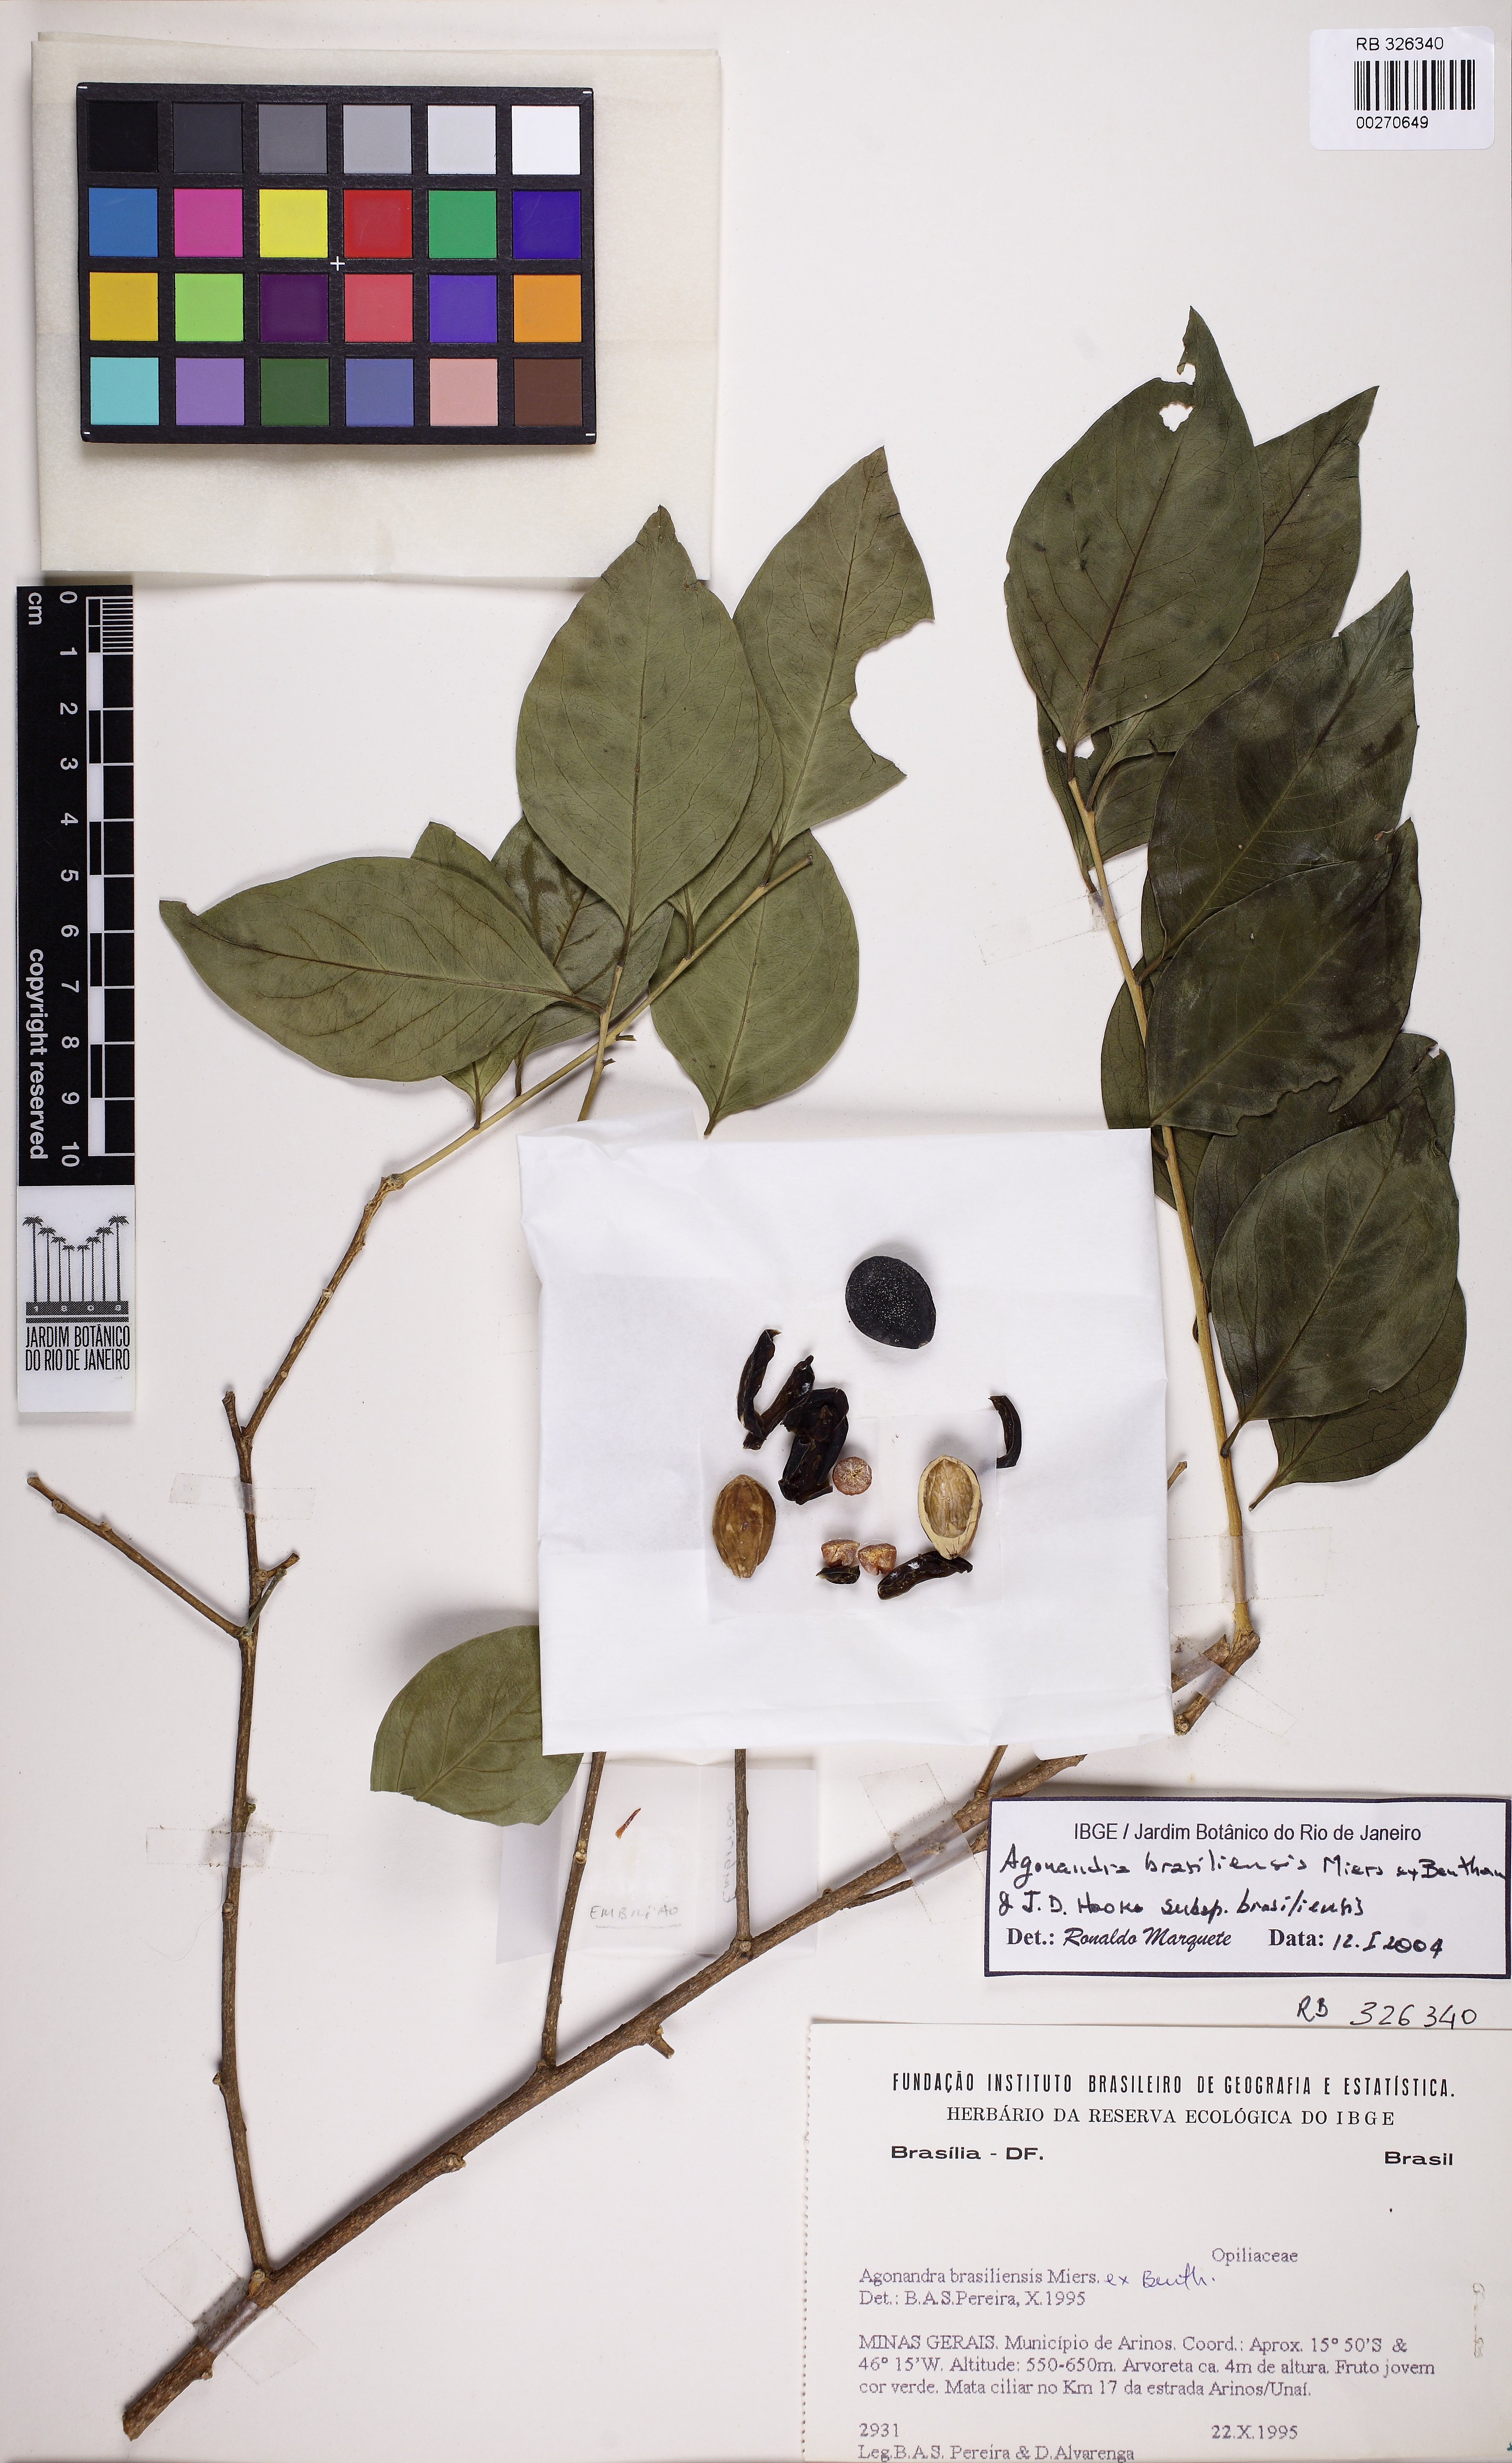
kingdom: Plantae
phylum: Tracheophyta
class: Magnoliopsida
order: Santalales
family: Opiliaceae
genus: Agonandra
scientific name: Agonandra brasiliensis
